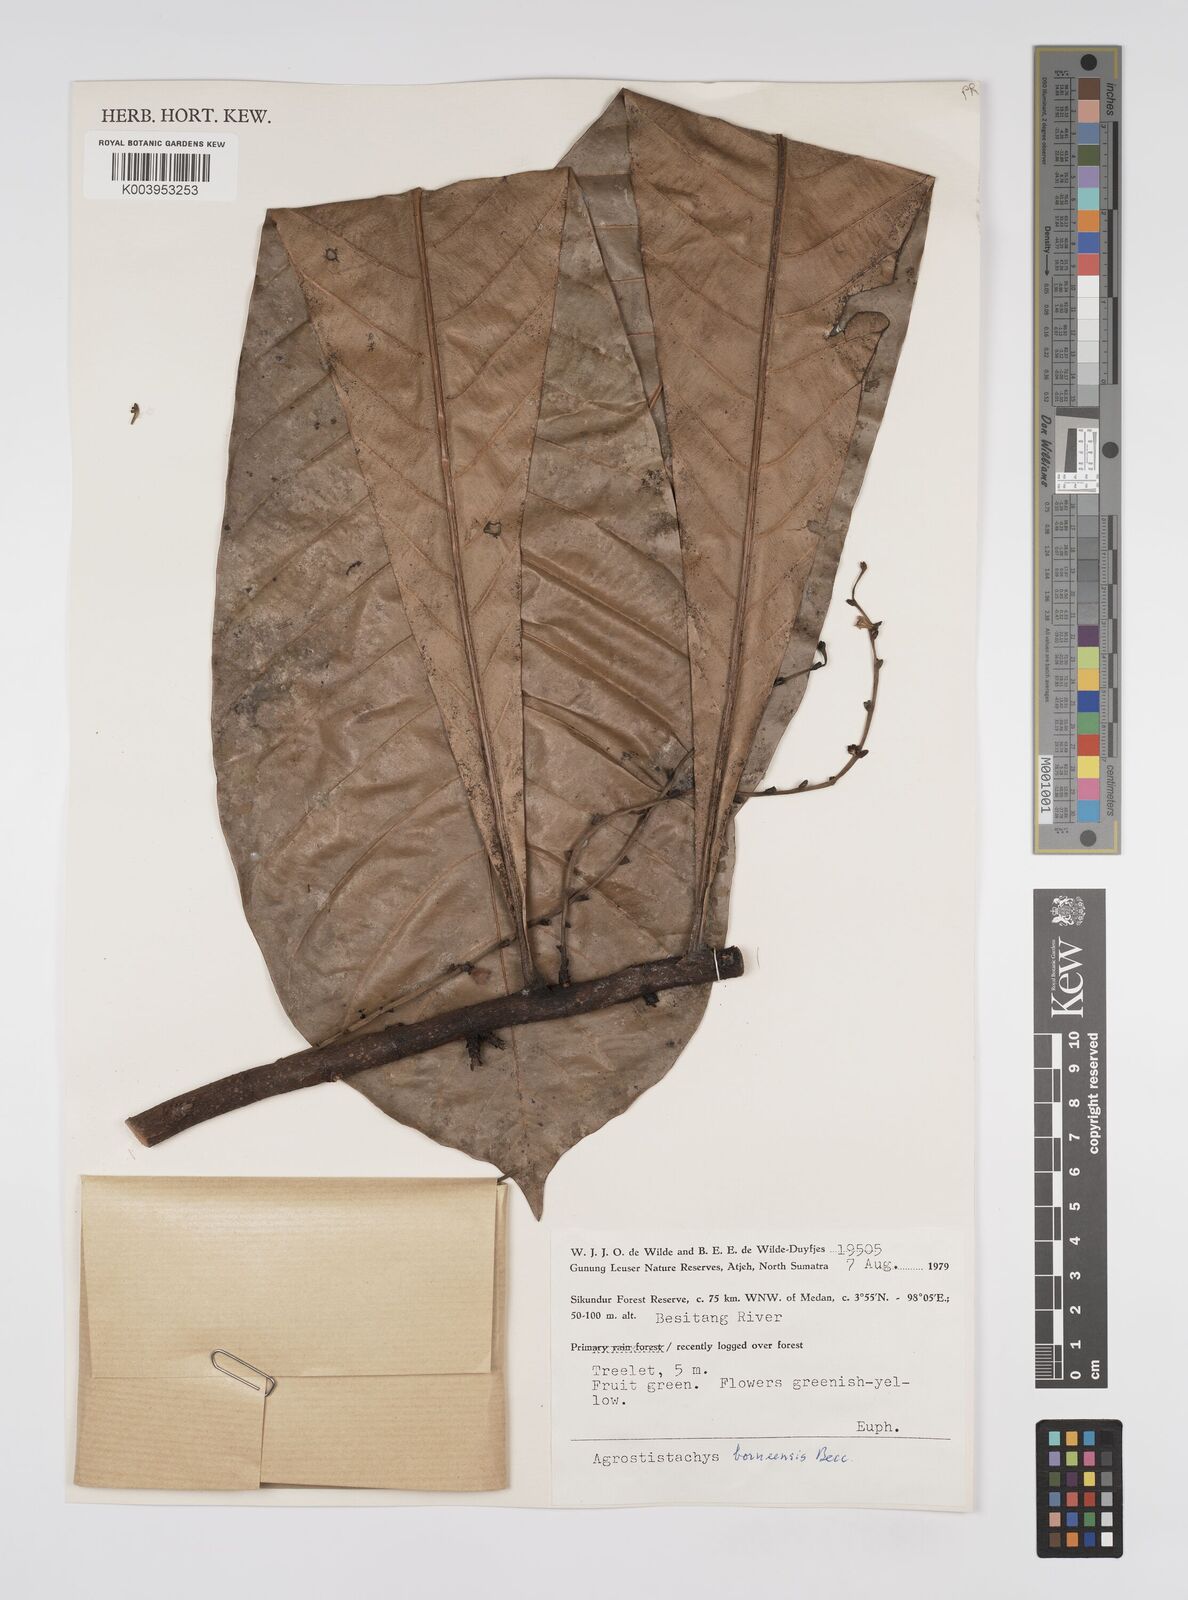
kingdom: Plantae
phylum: Tracheophyta
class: Magnoliopsida
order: Malpighiales
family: Euphorbiaceae
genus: Agrostistachys
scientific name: Agrostistachys borneensis
